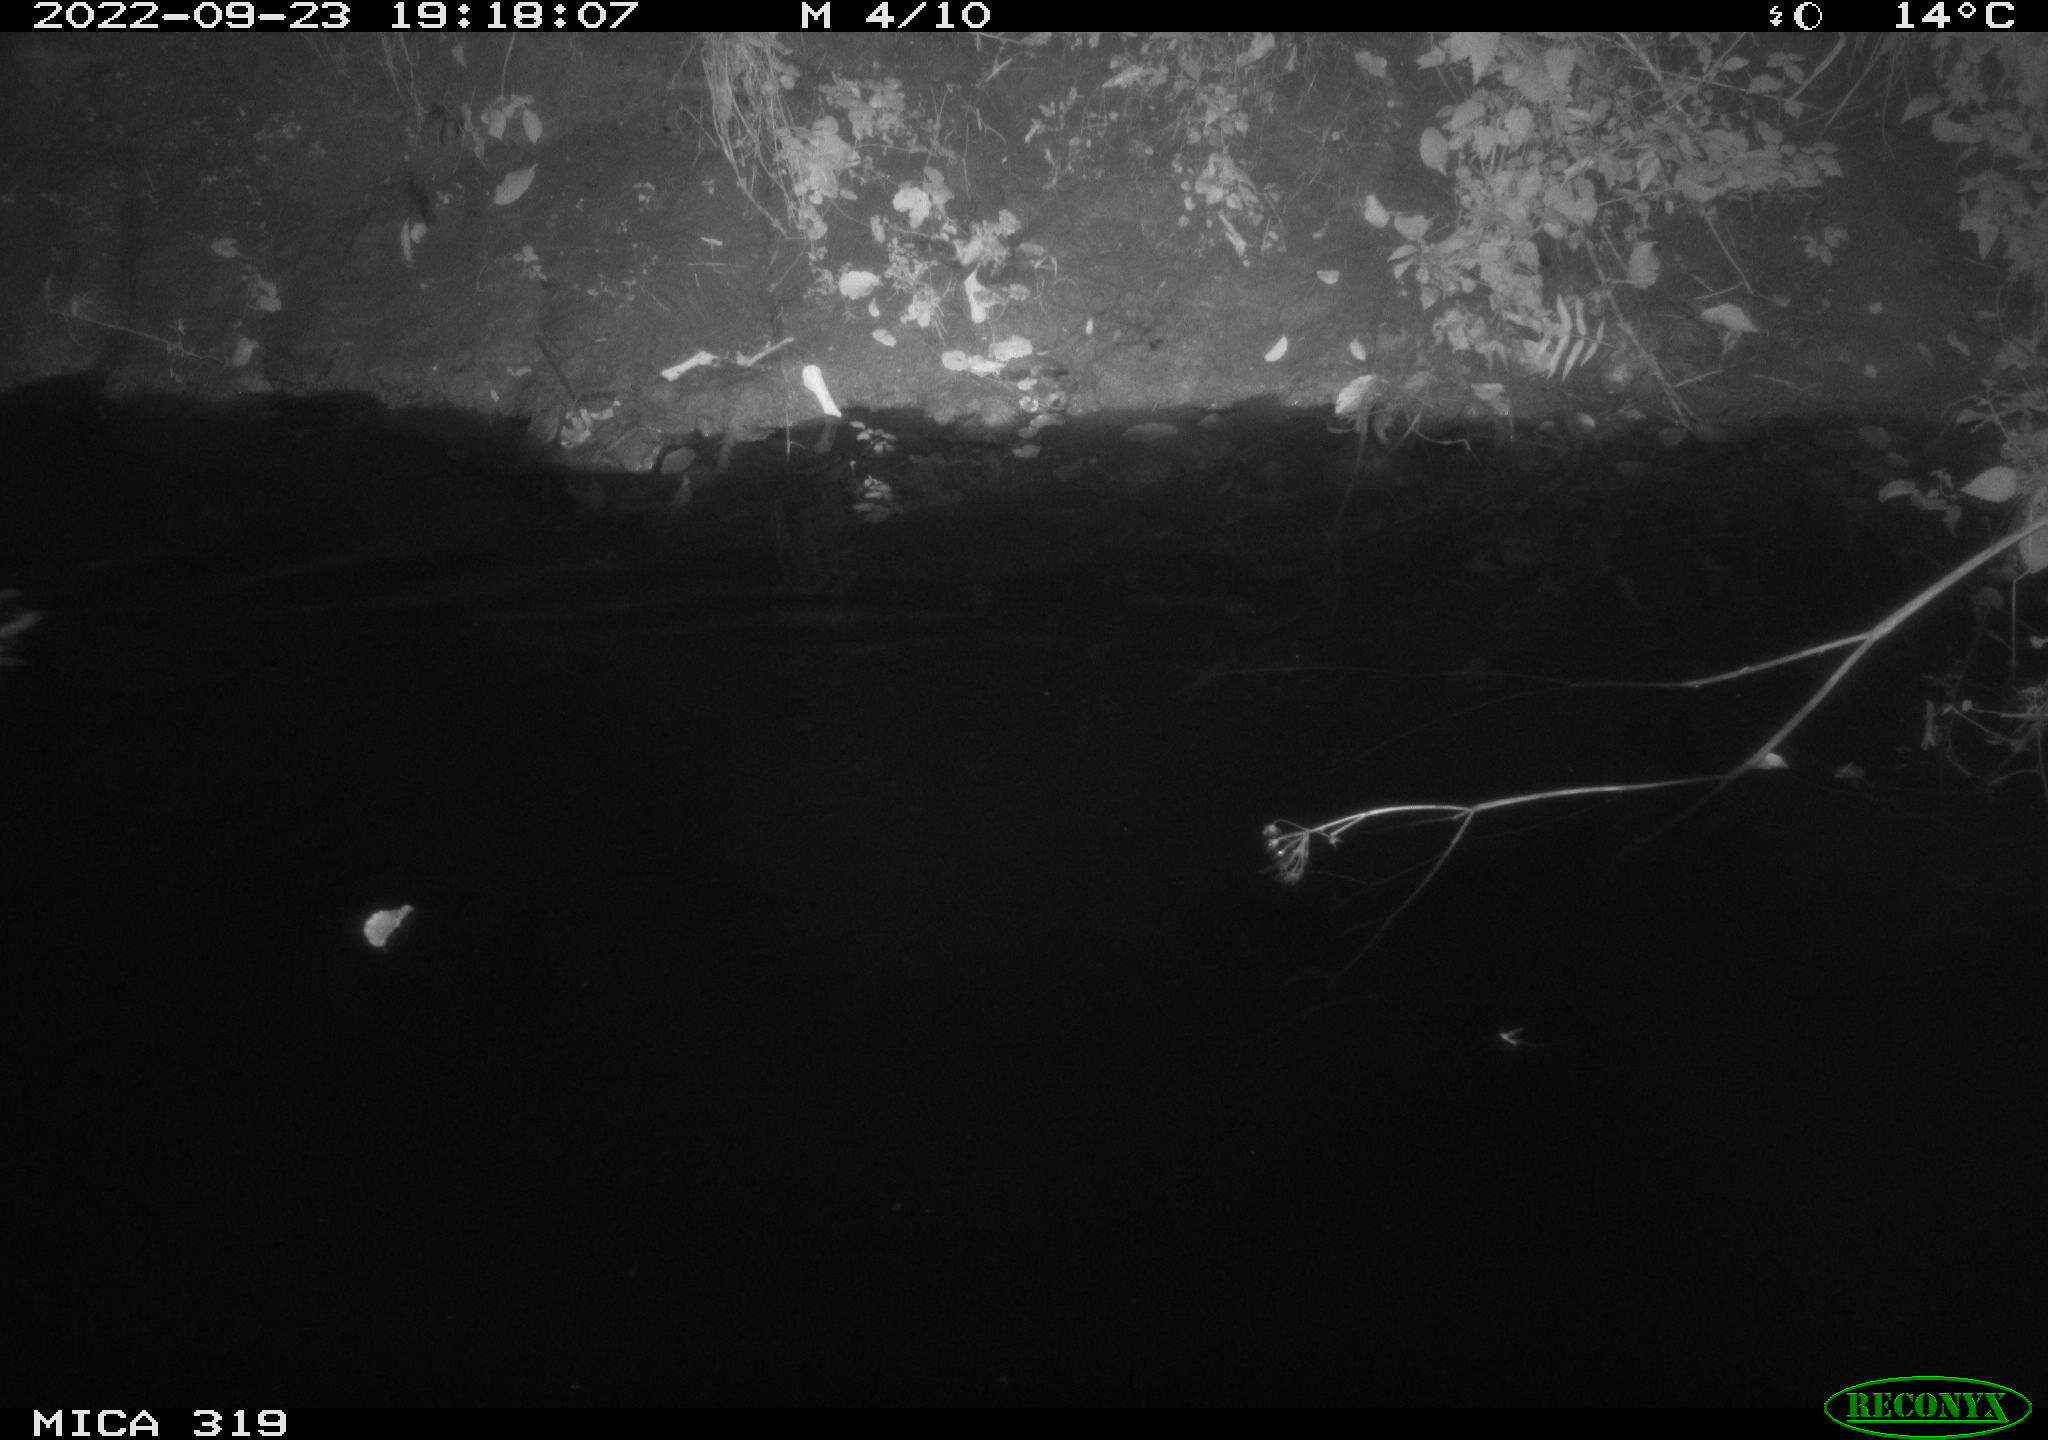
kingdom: Animalia
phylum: Chordata
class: Aves
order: Anseriformes
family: Anatidae
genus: Anas
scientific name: Anas
